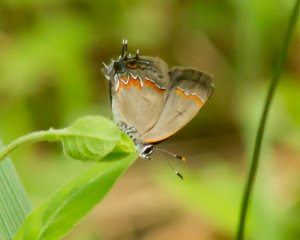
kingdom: Animalia
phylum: Arthropoda
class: Insecta
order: Lepidoptera
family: Lycaenidae
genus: Calycopis
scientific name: Calycopis cecrops
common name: Red-banded Hairstreak
